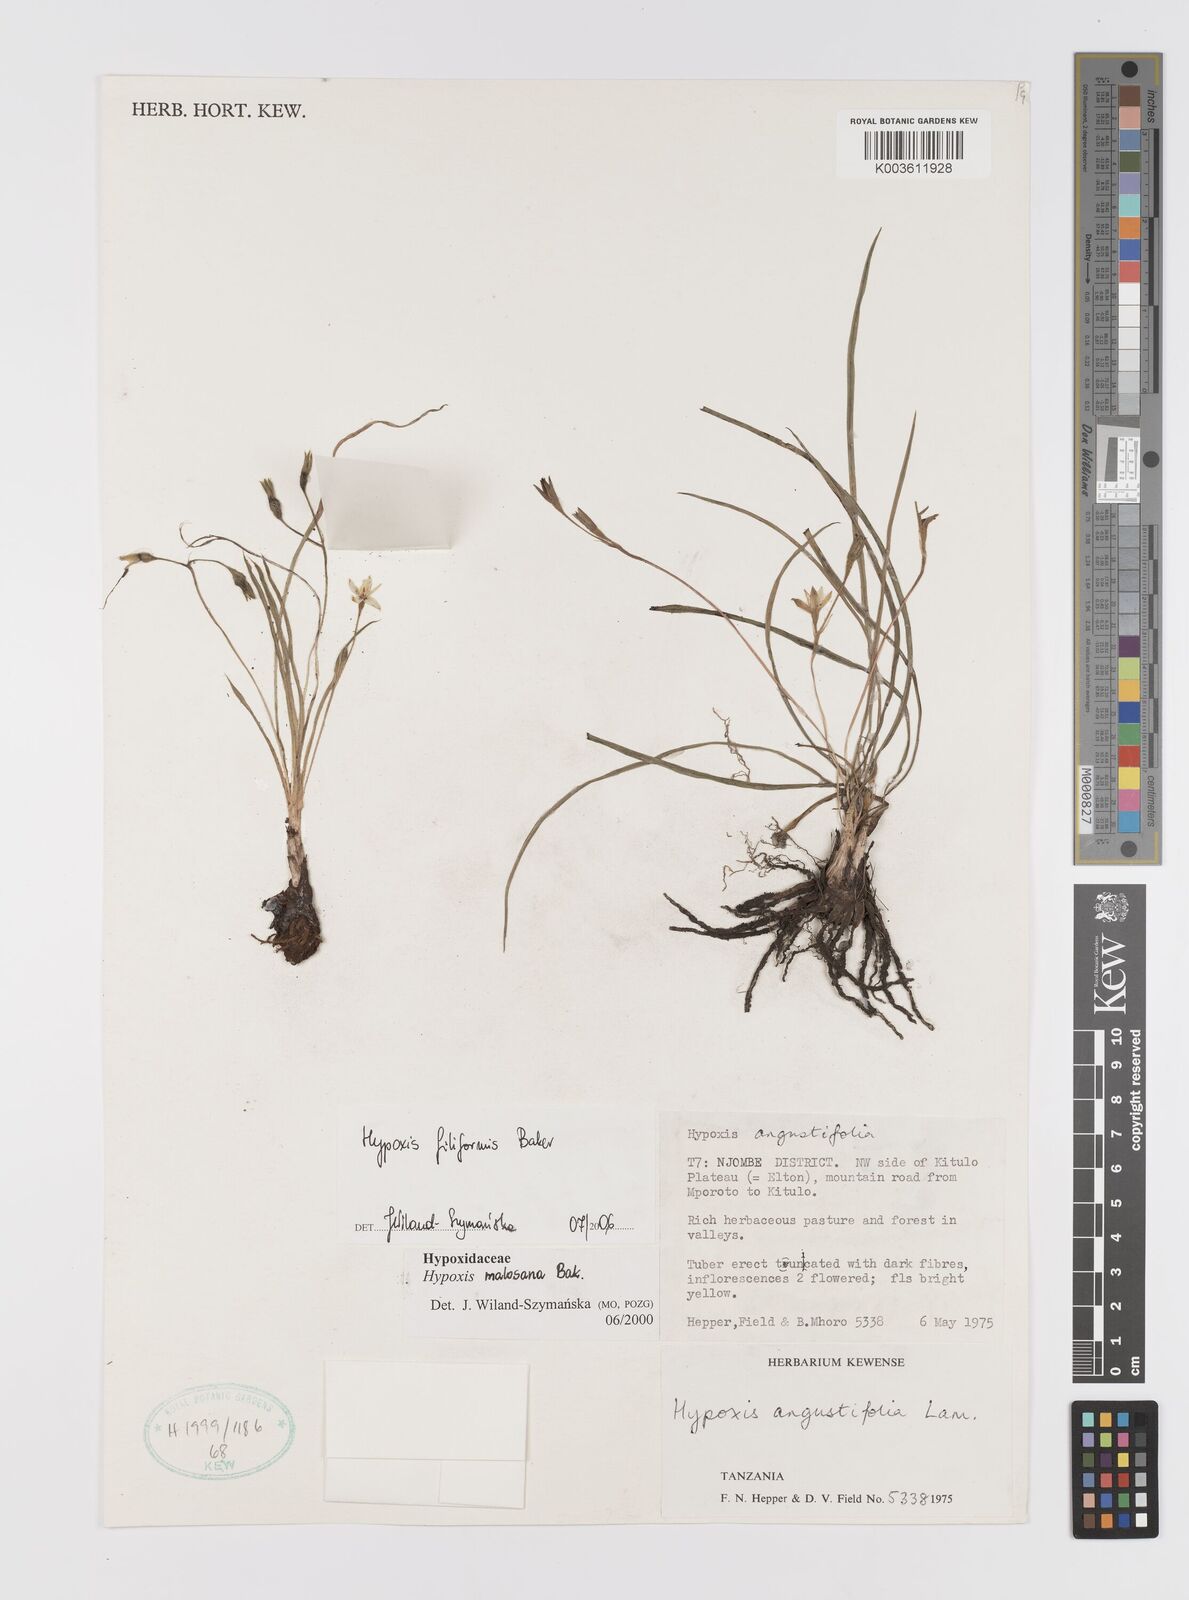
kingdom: Plantae
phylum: Tracheophyta
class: Liliopsida
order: Asparagales
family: Hypoxidaceae
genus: Hypoxis
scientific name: Hypoxis filiformis
